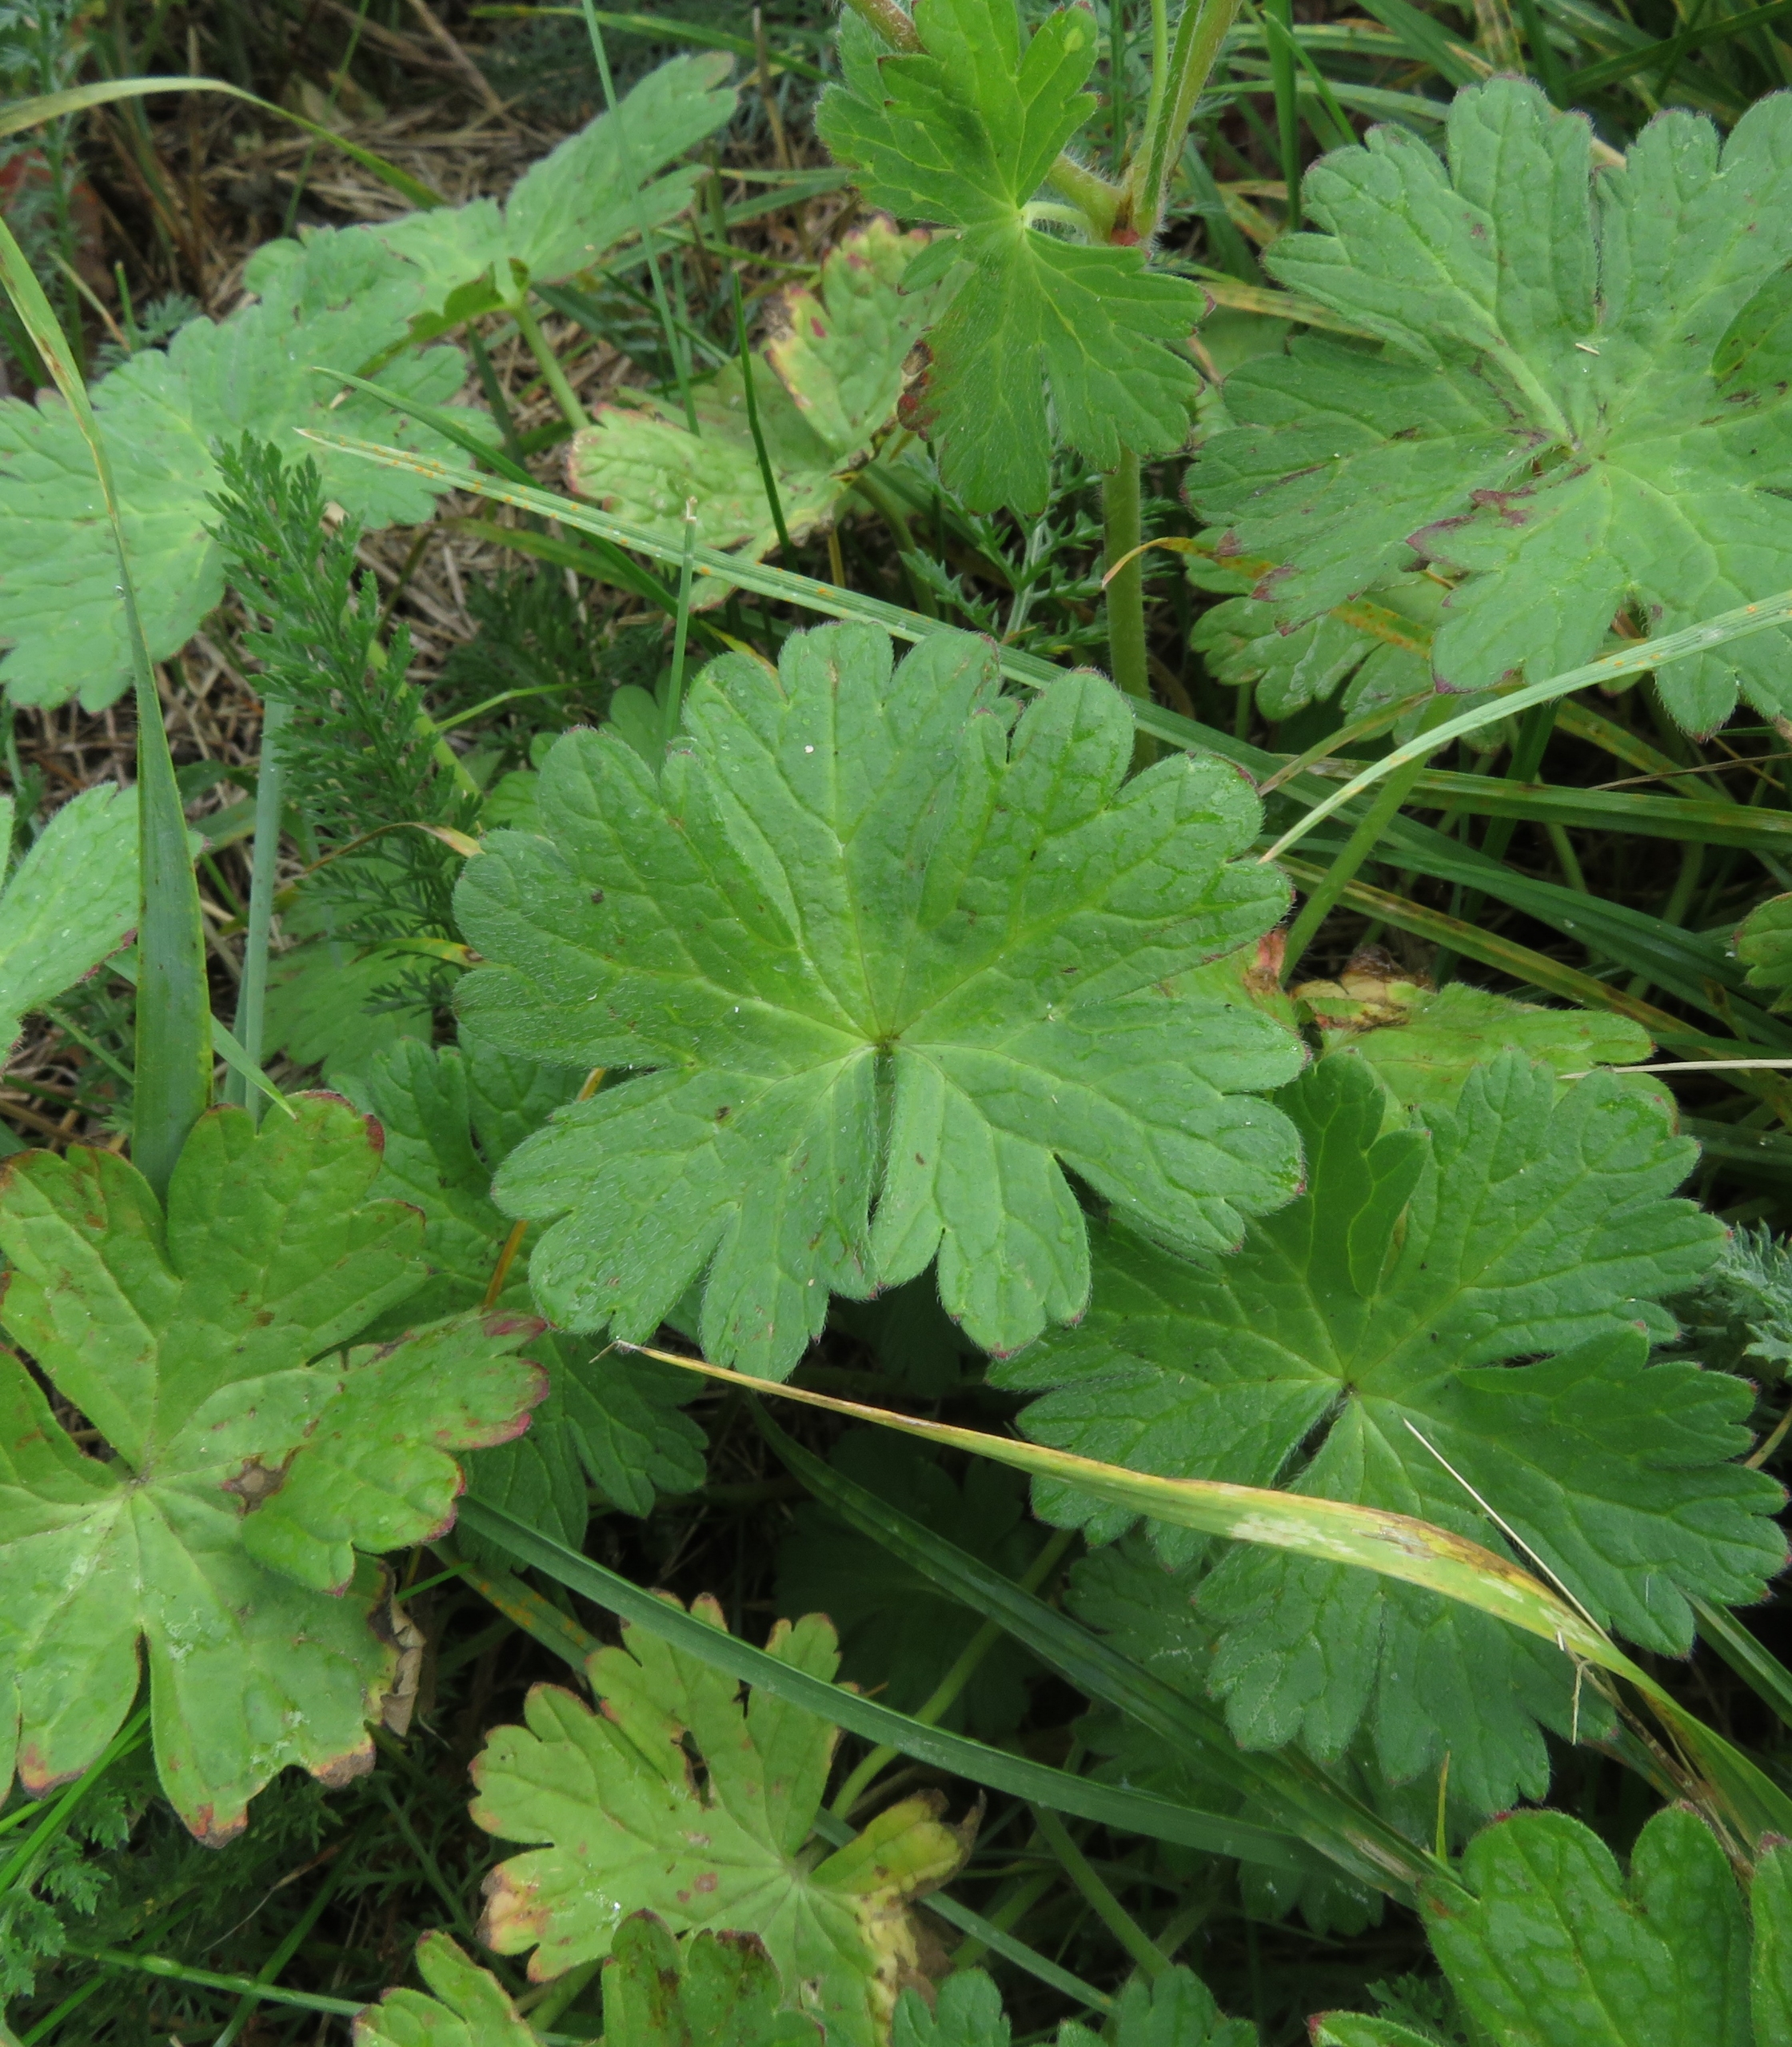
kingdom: Plantae
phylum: Tracheophyta
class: Magnoliopsida
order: Geraniales
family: Geraniaceae
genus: Geranium
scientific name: Geranium pyrenaicum
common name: Pyrenæisk storkenæb
